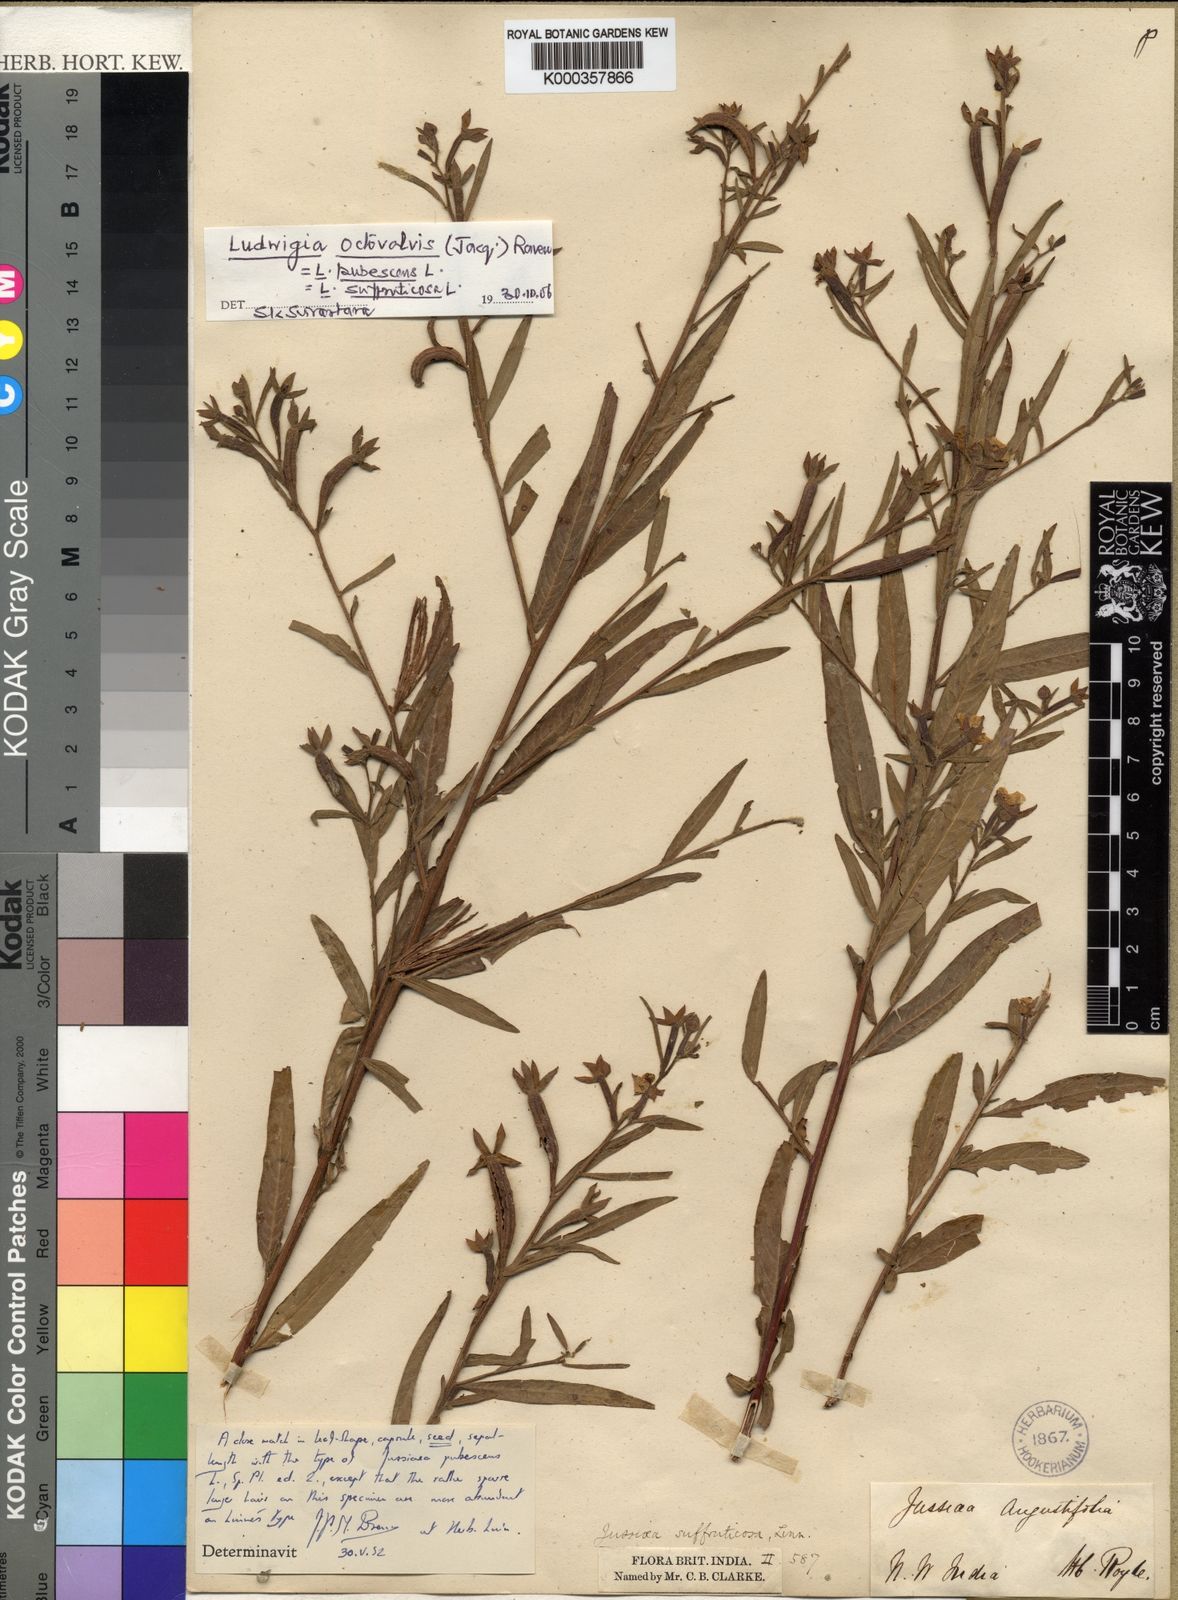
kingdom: Plantae
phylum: Tracheophyta
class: Magnoliopsida
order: Myrtales
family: Onagraceae
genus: Ludwigia
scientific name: Ludwigia octovalvis
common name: Water-primrose
